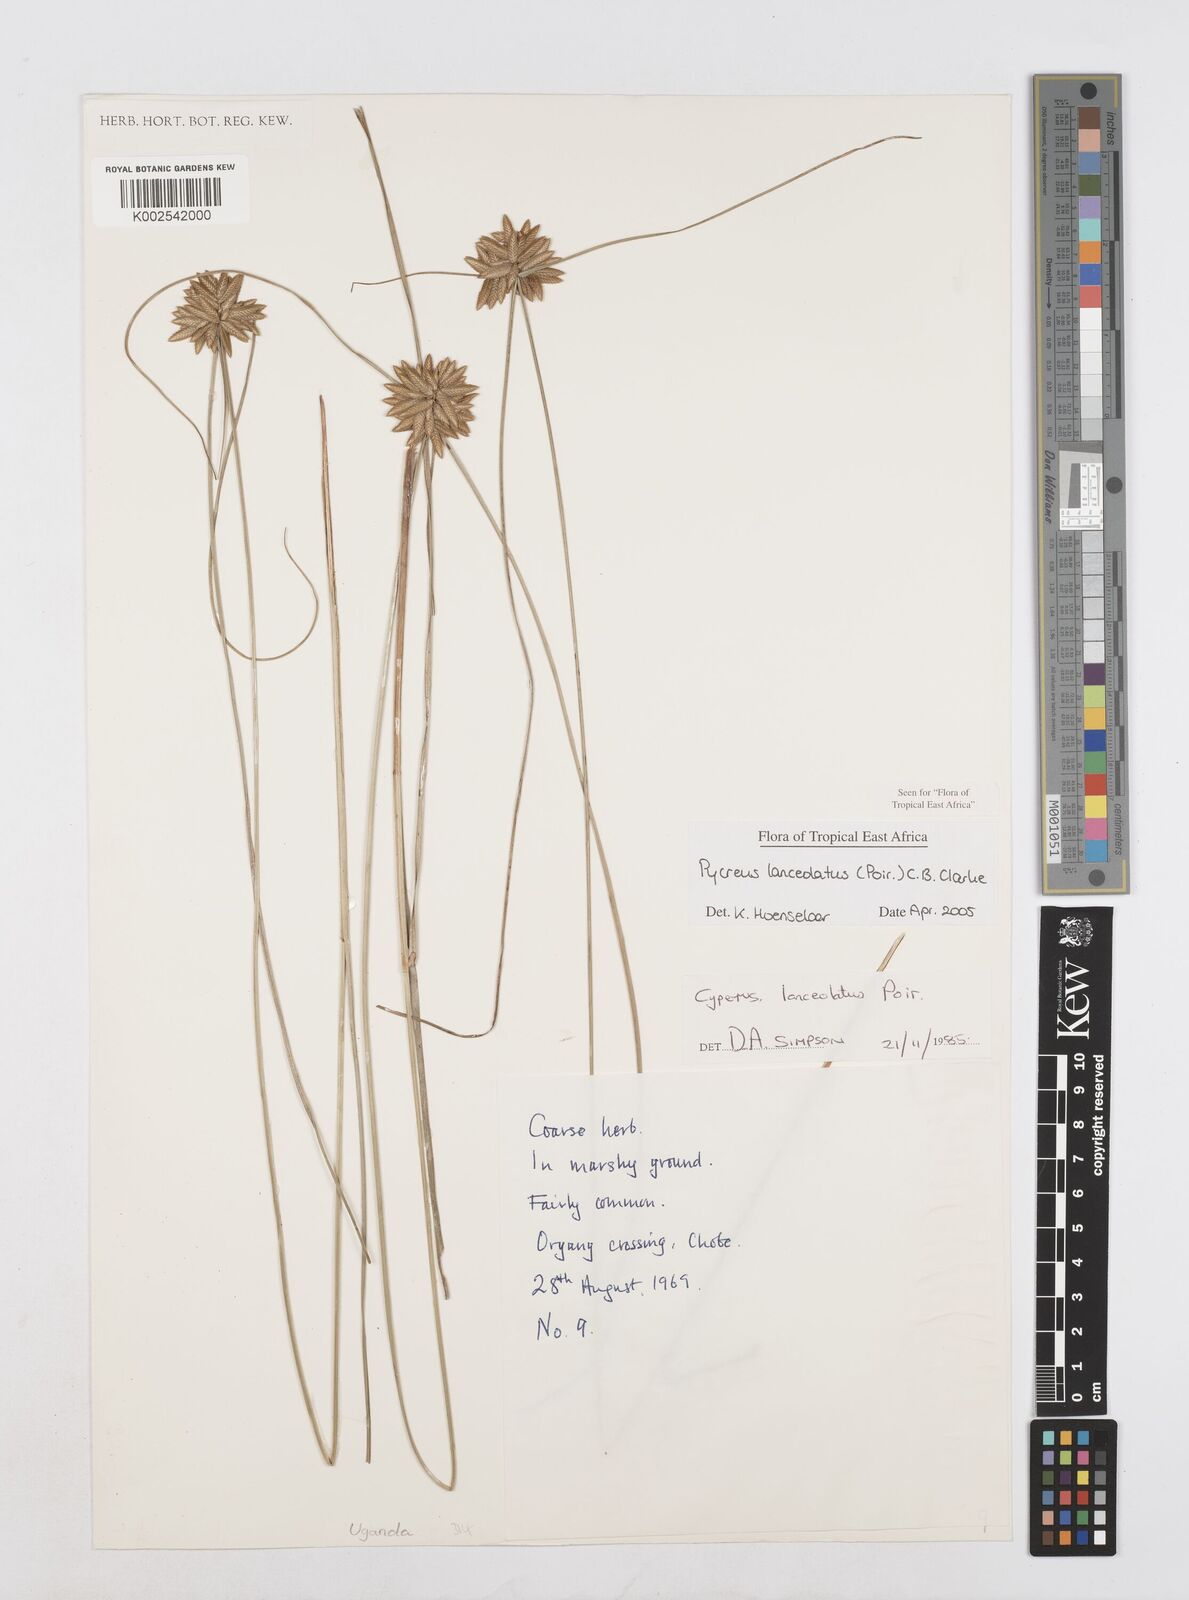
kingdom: Plantae
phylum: Tracheophyta
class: Liliopsida
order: Poales
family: Cyperaceae
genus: Cyperus
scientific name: Cyperus lanceolatus
